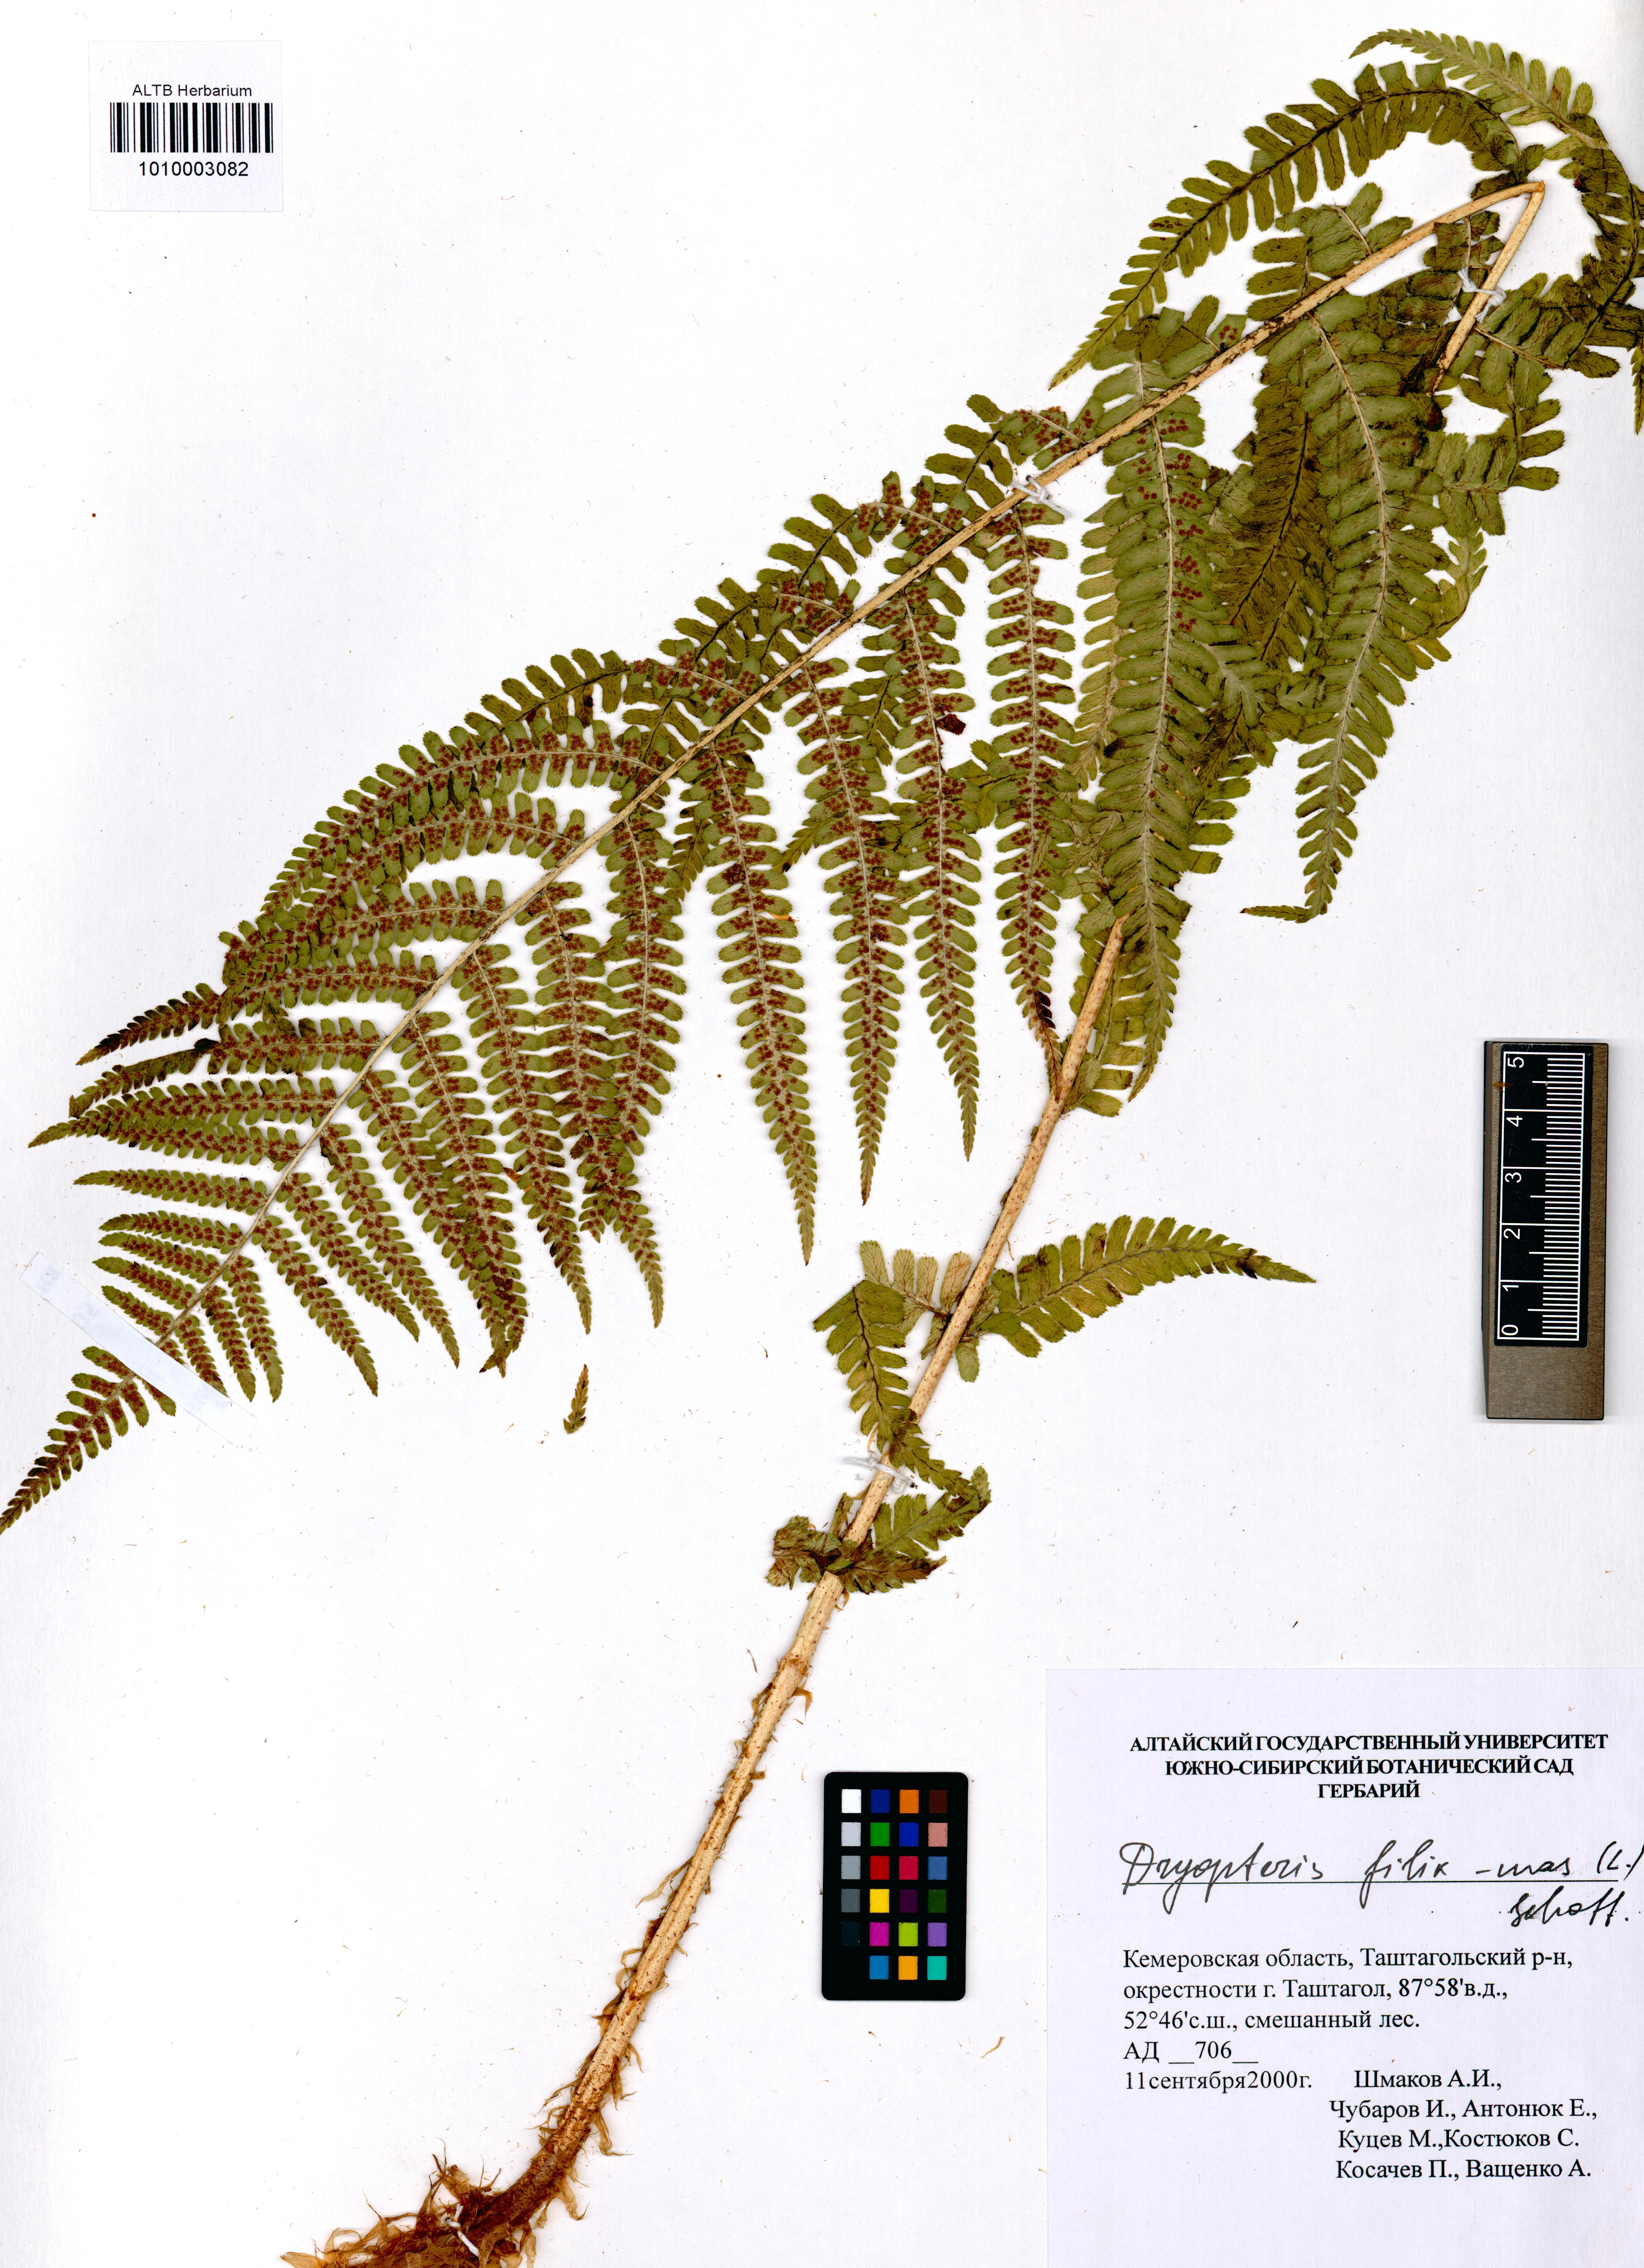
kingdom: Plantae
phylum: Tracheophyta
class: Polypodiopsida
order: Polypodiales
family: Dryopteridaceae
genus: Dryopteris
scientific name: Dryopteris filix-mas
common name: Male fern
